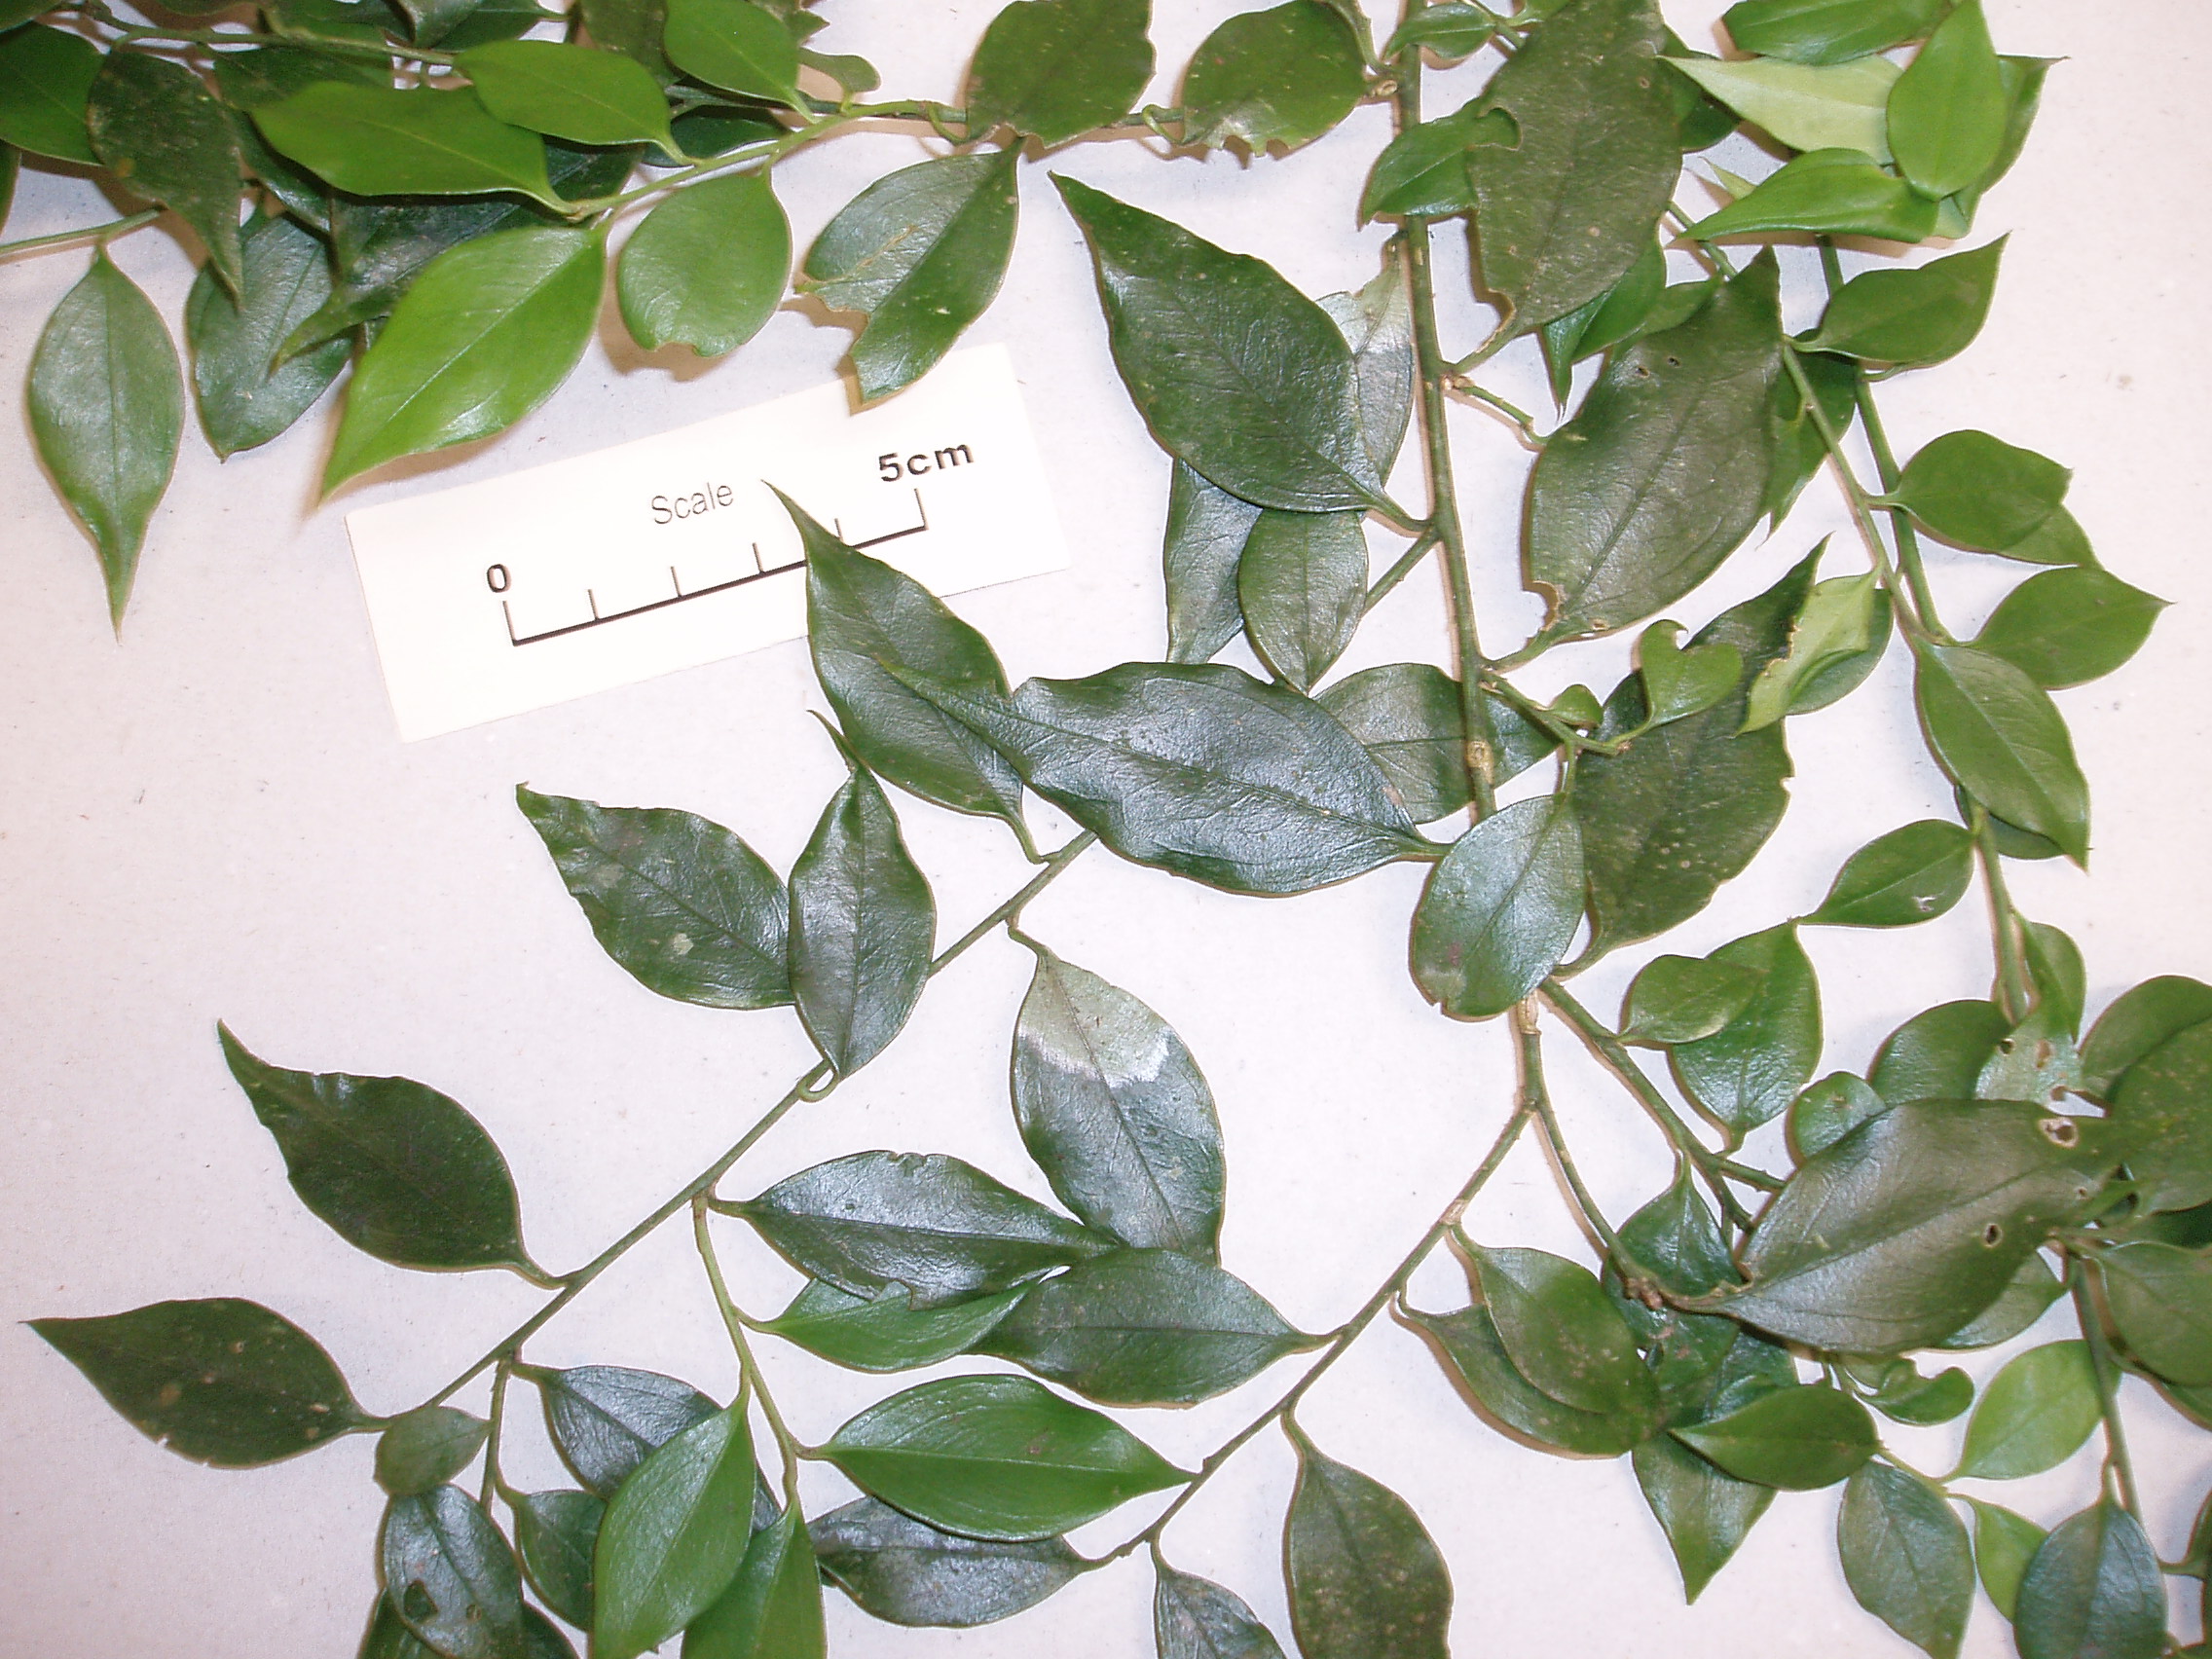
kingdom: Plantae
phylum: Tracheophyta
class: Magnoliopsida
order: Rosales
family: Rhamnaceae
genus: Rhamnus
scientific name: Rhamnus
